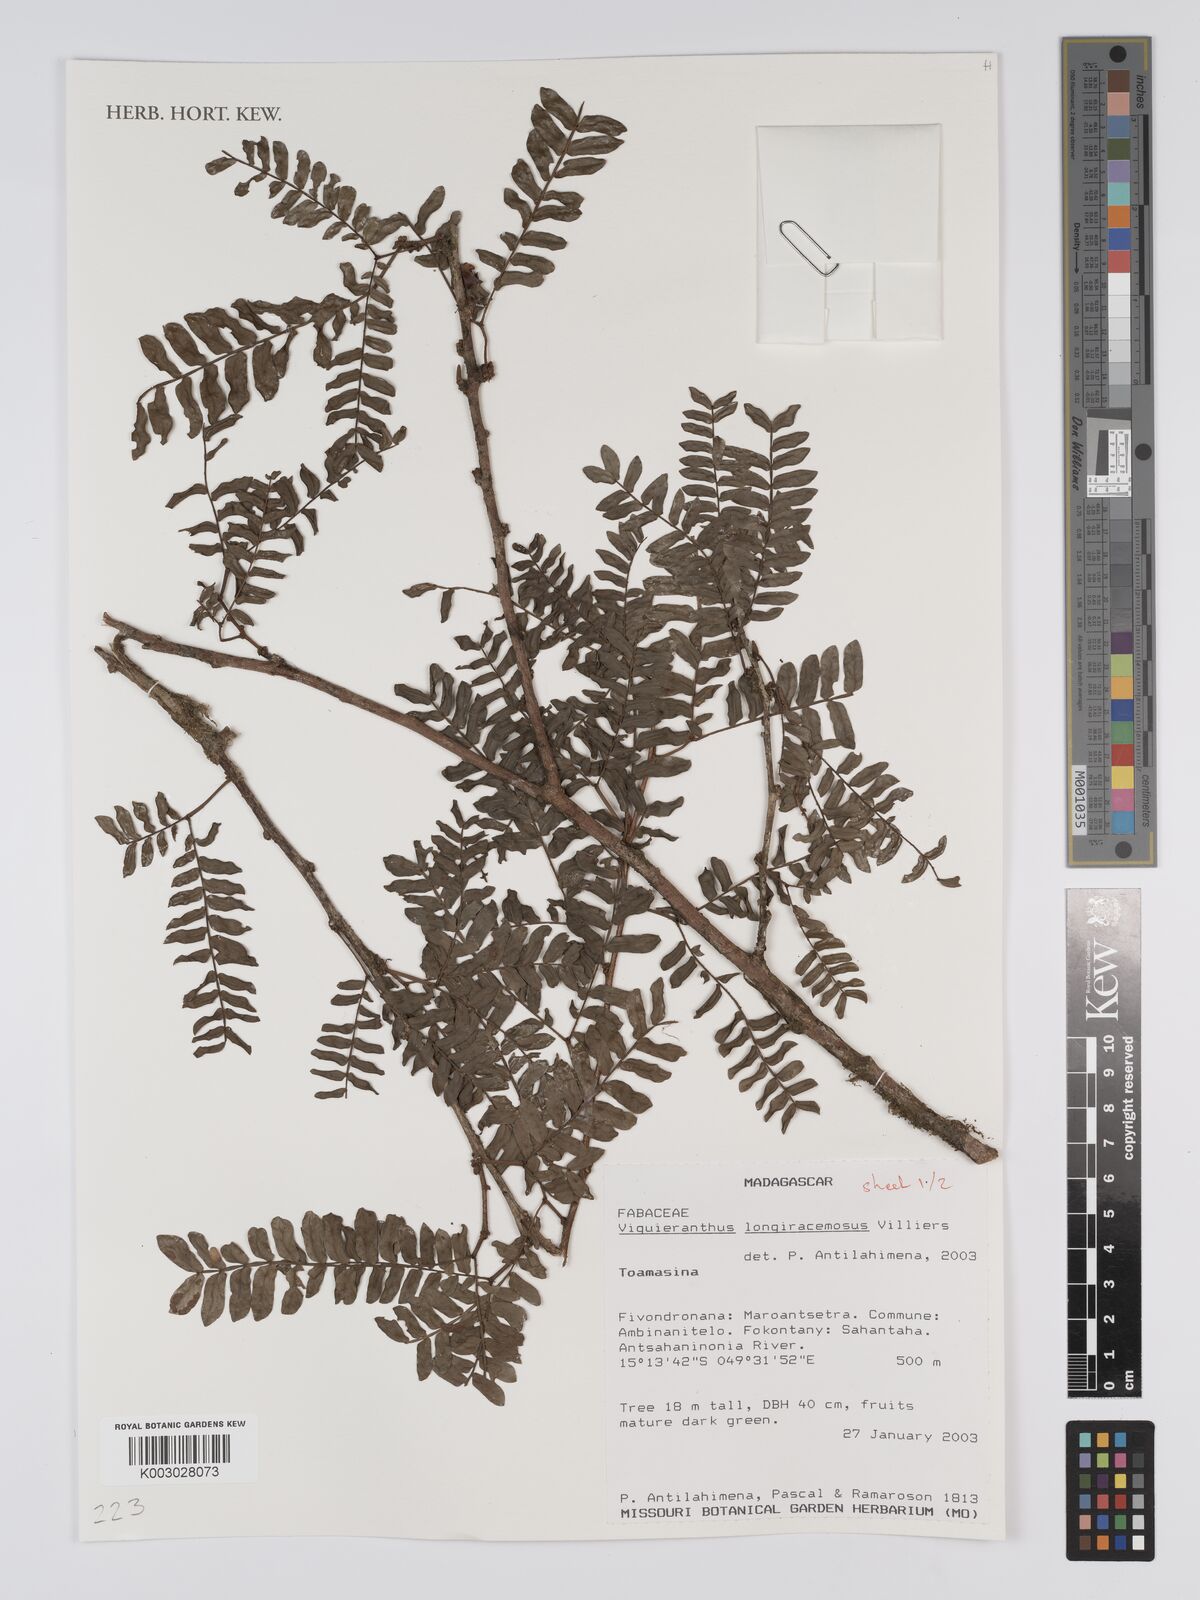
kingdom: Plantae
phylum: Tracheophyta
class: Magnoliopsida
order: Fabales
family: Fabaceae
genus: Viguieranthus
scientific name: Viguieranthus longiracemosus
